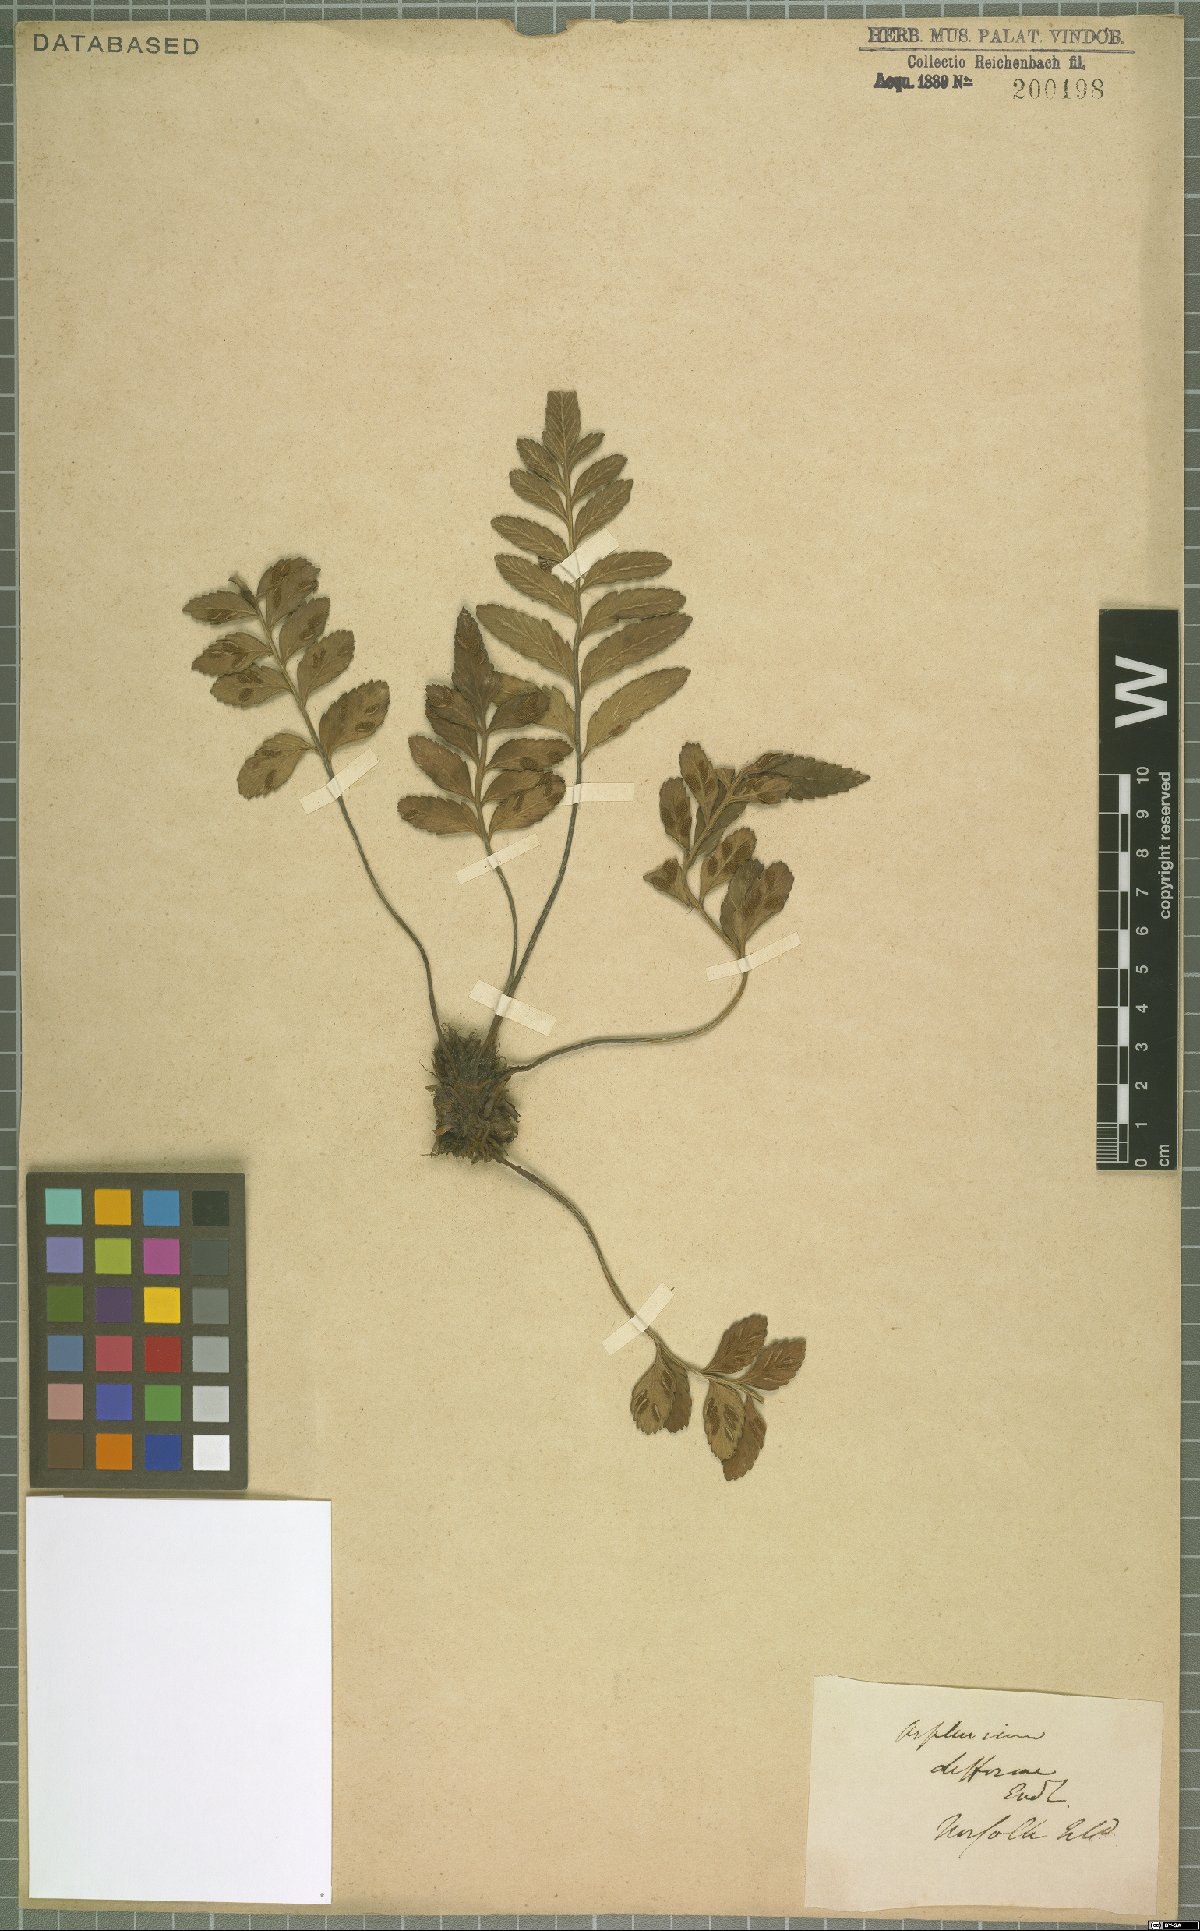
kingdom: Plantae
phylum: Tracheophyta
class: Polypodiopsida
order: Polypodiales
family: Aspleniaceae
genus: Asplenium
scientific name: Asplenium difforme
